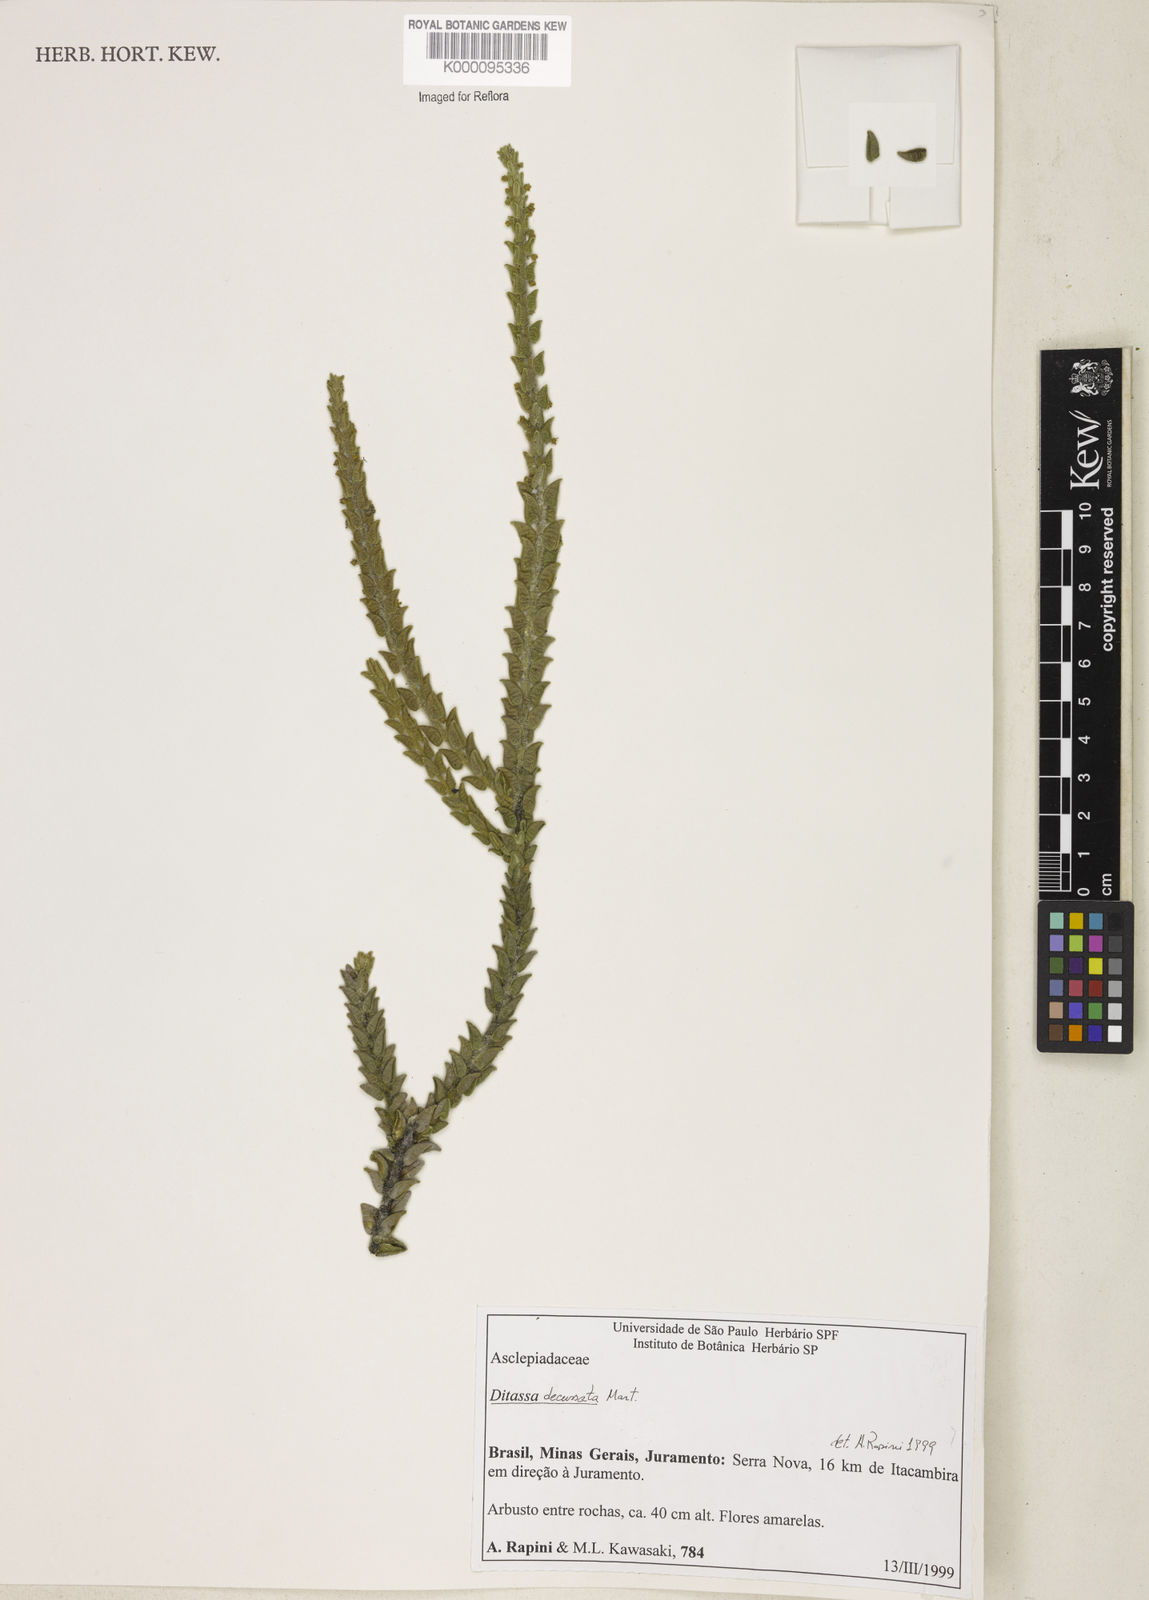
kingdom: Plantae
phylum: Tracheophyta
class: Magnoliopsida
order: Gentianales
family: Apocynaceae
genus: Minaria
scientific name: Minaria decussata
